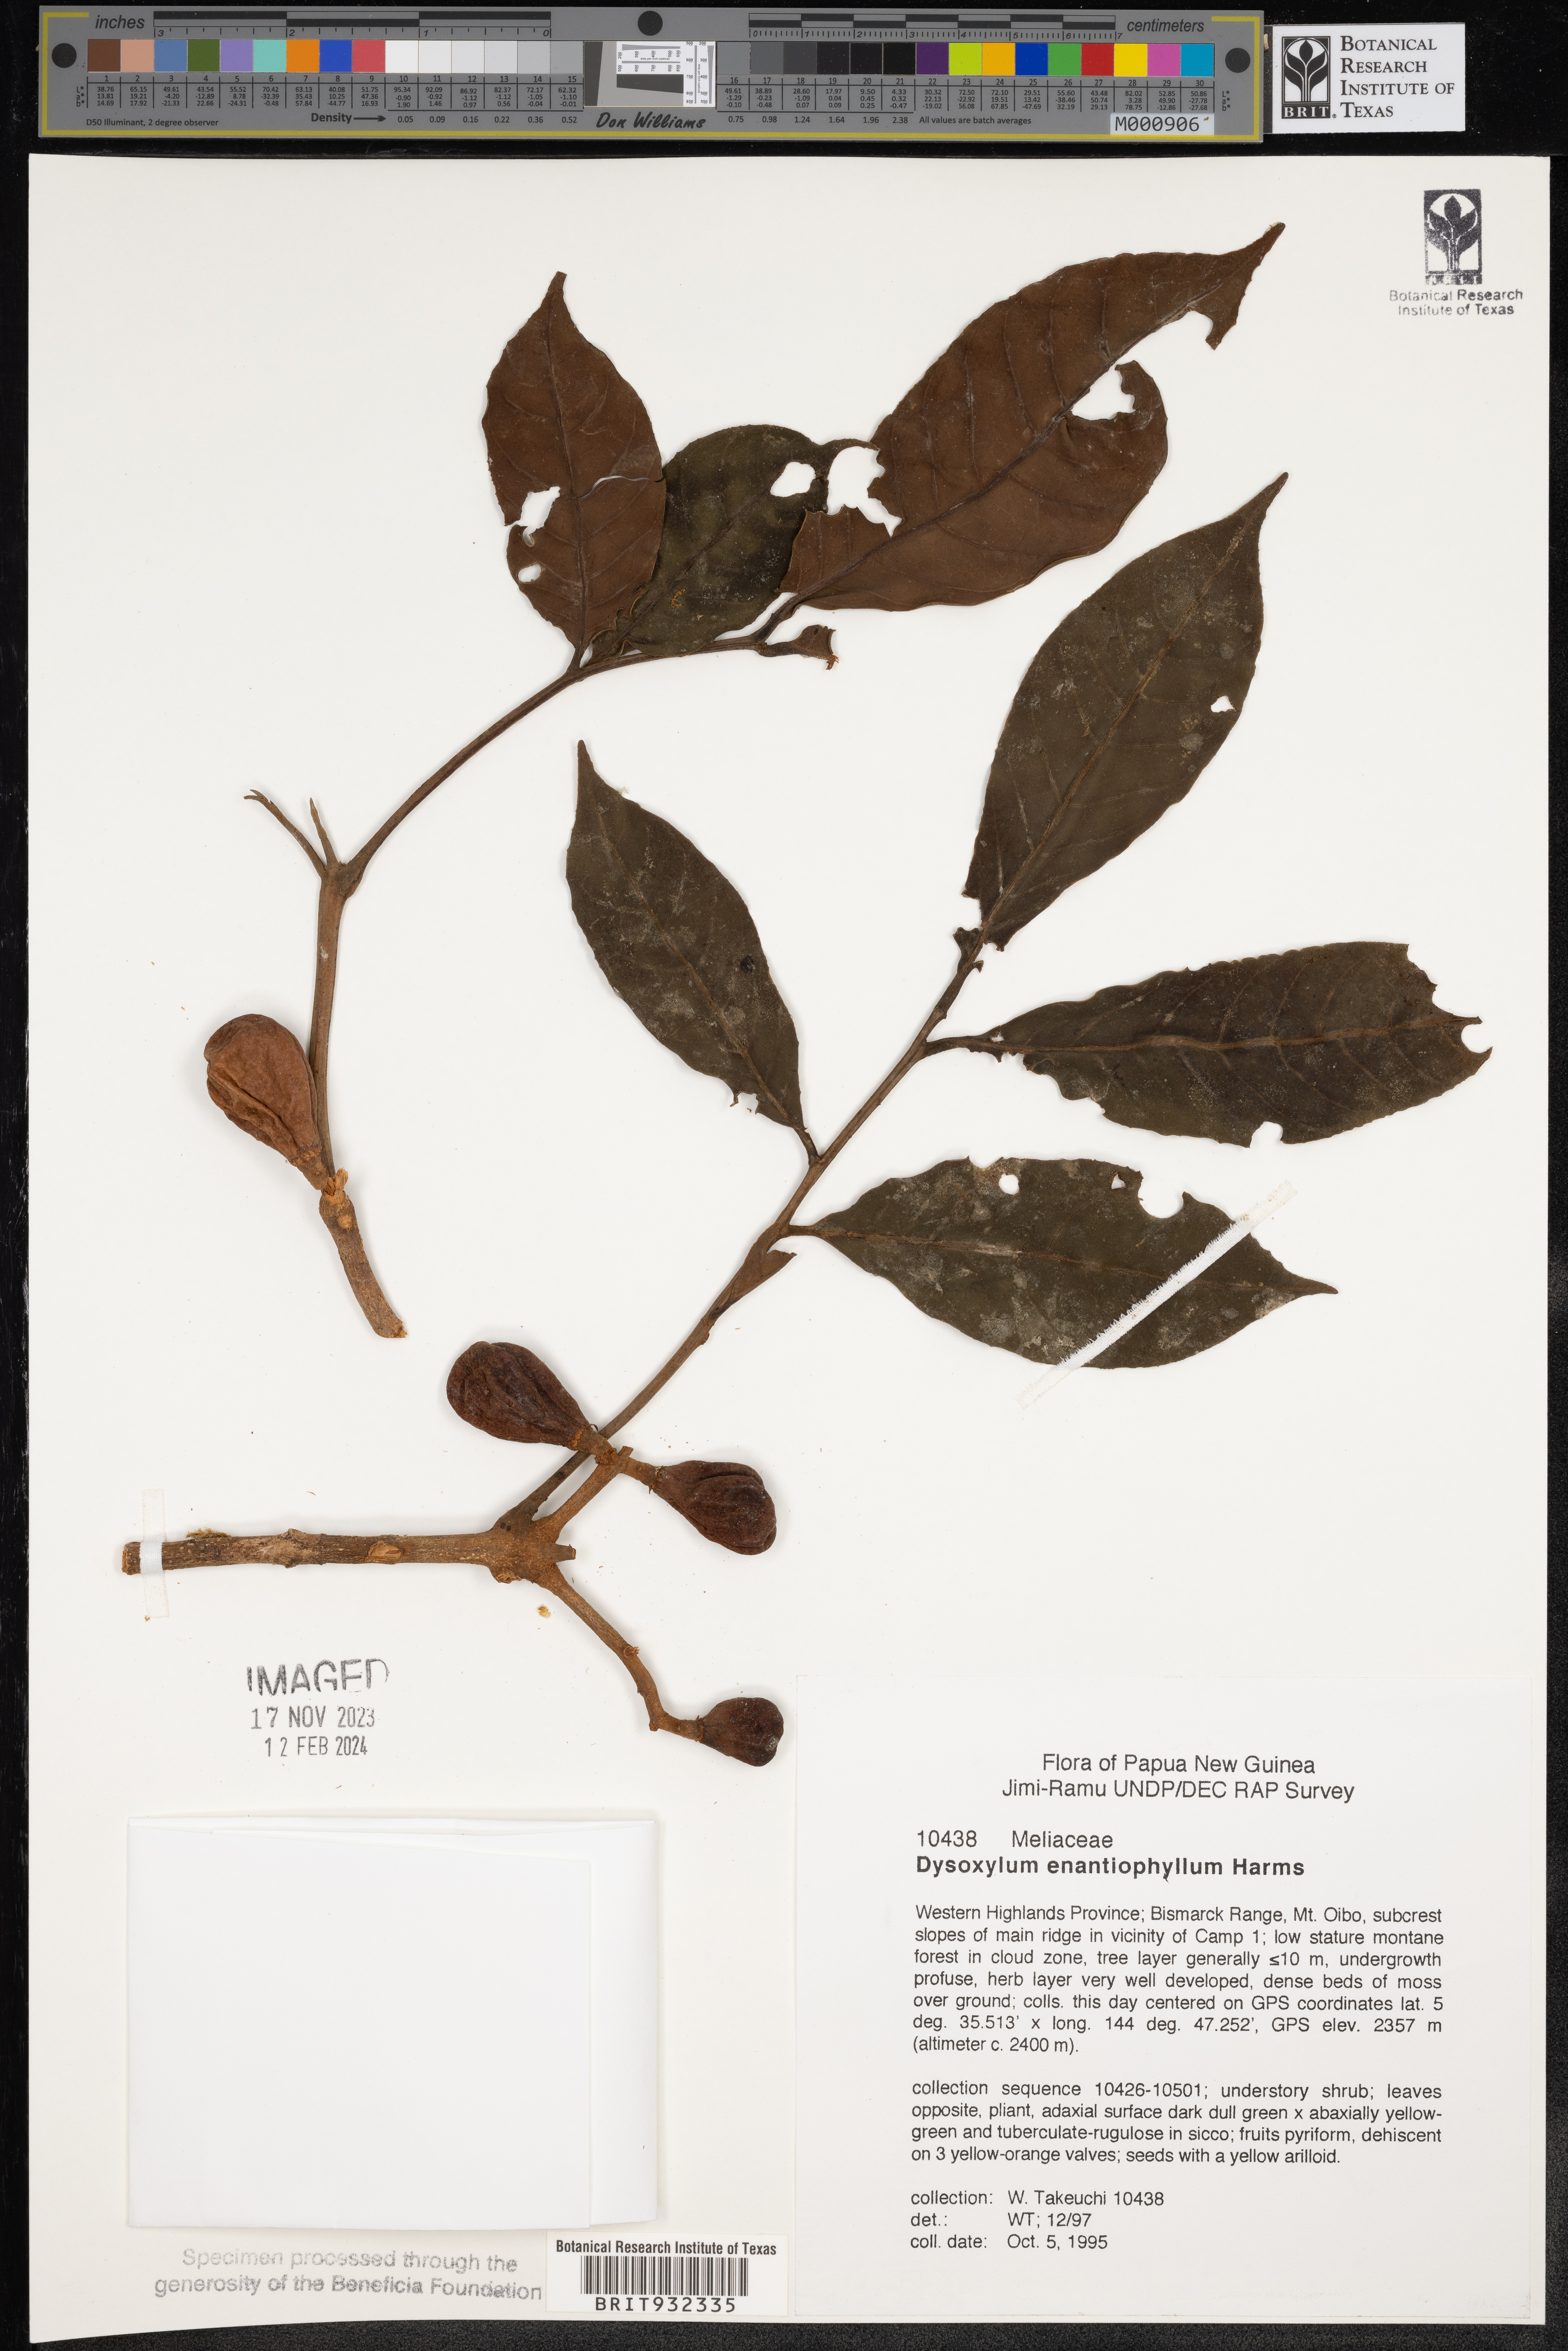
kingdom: Plantae
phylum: Tracheophyta
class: Magnoliopsida
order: Sapindales
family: Meliaceae
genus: Dysoxylum
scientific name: Dysoxylum
